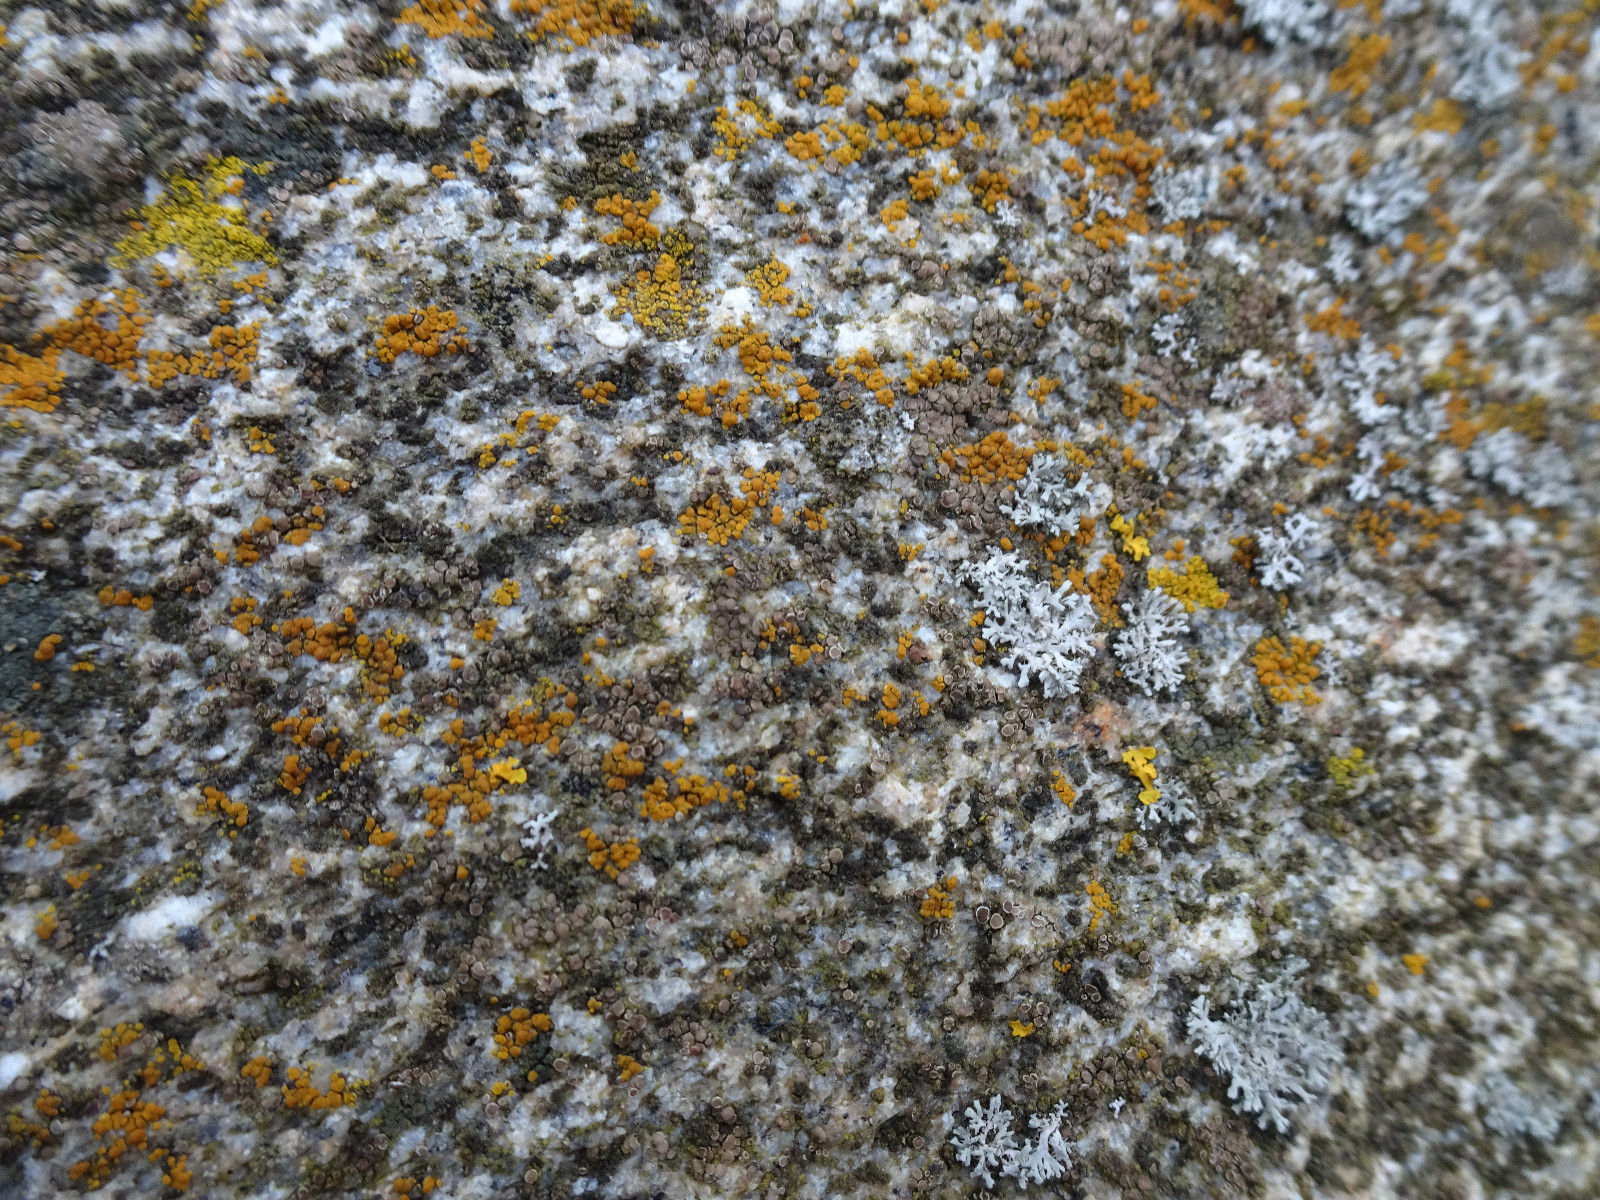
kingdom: Fungi
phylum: Ascomycota
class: Lecanoromycetes
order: Teloschistales
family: Teloschistaceae
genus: Athallia
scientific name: Athallia
